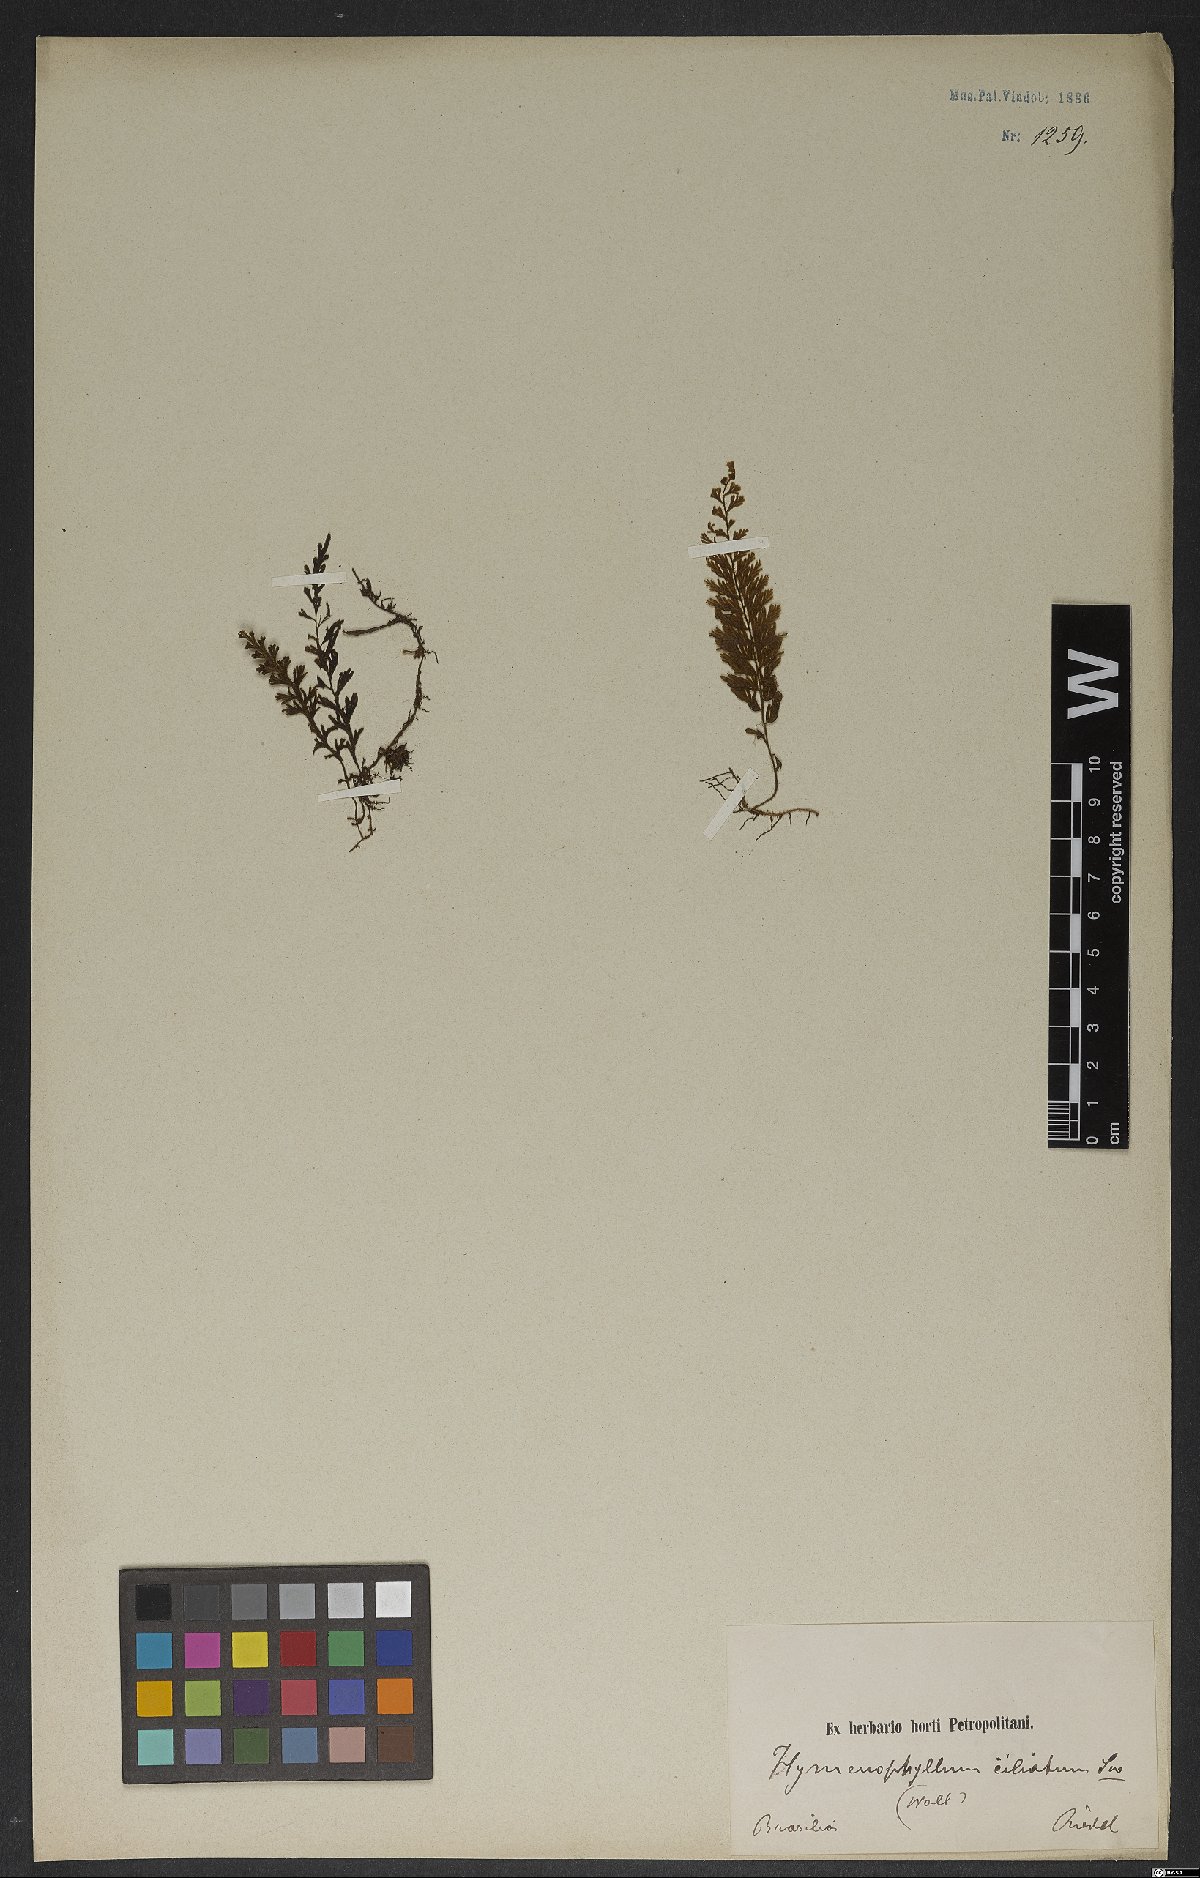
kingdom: Plantae
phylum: Tracheophyta
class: Polypodiopsida
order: Hymenophyllales
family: Hymenophyllaceae
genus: Hymenophyllum
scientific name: Hymenophyllum hirsutum
